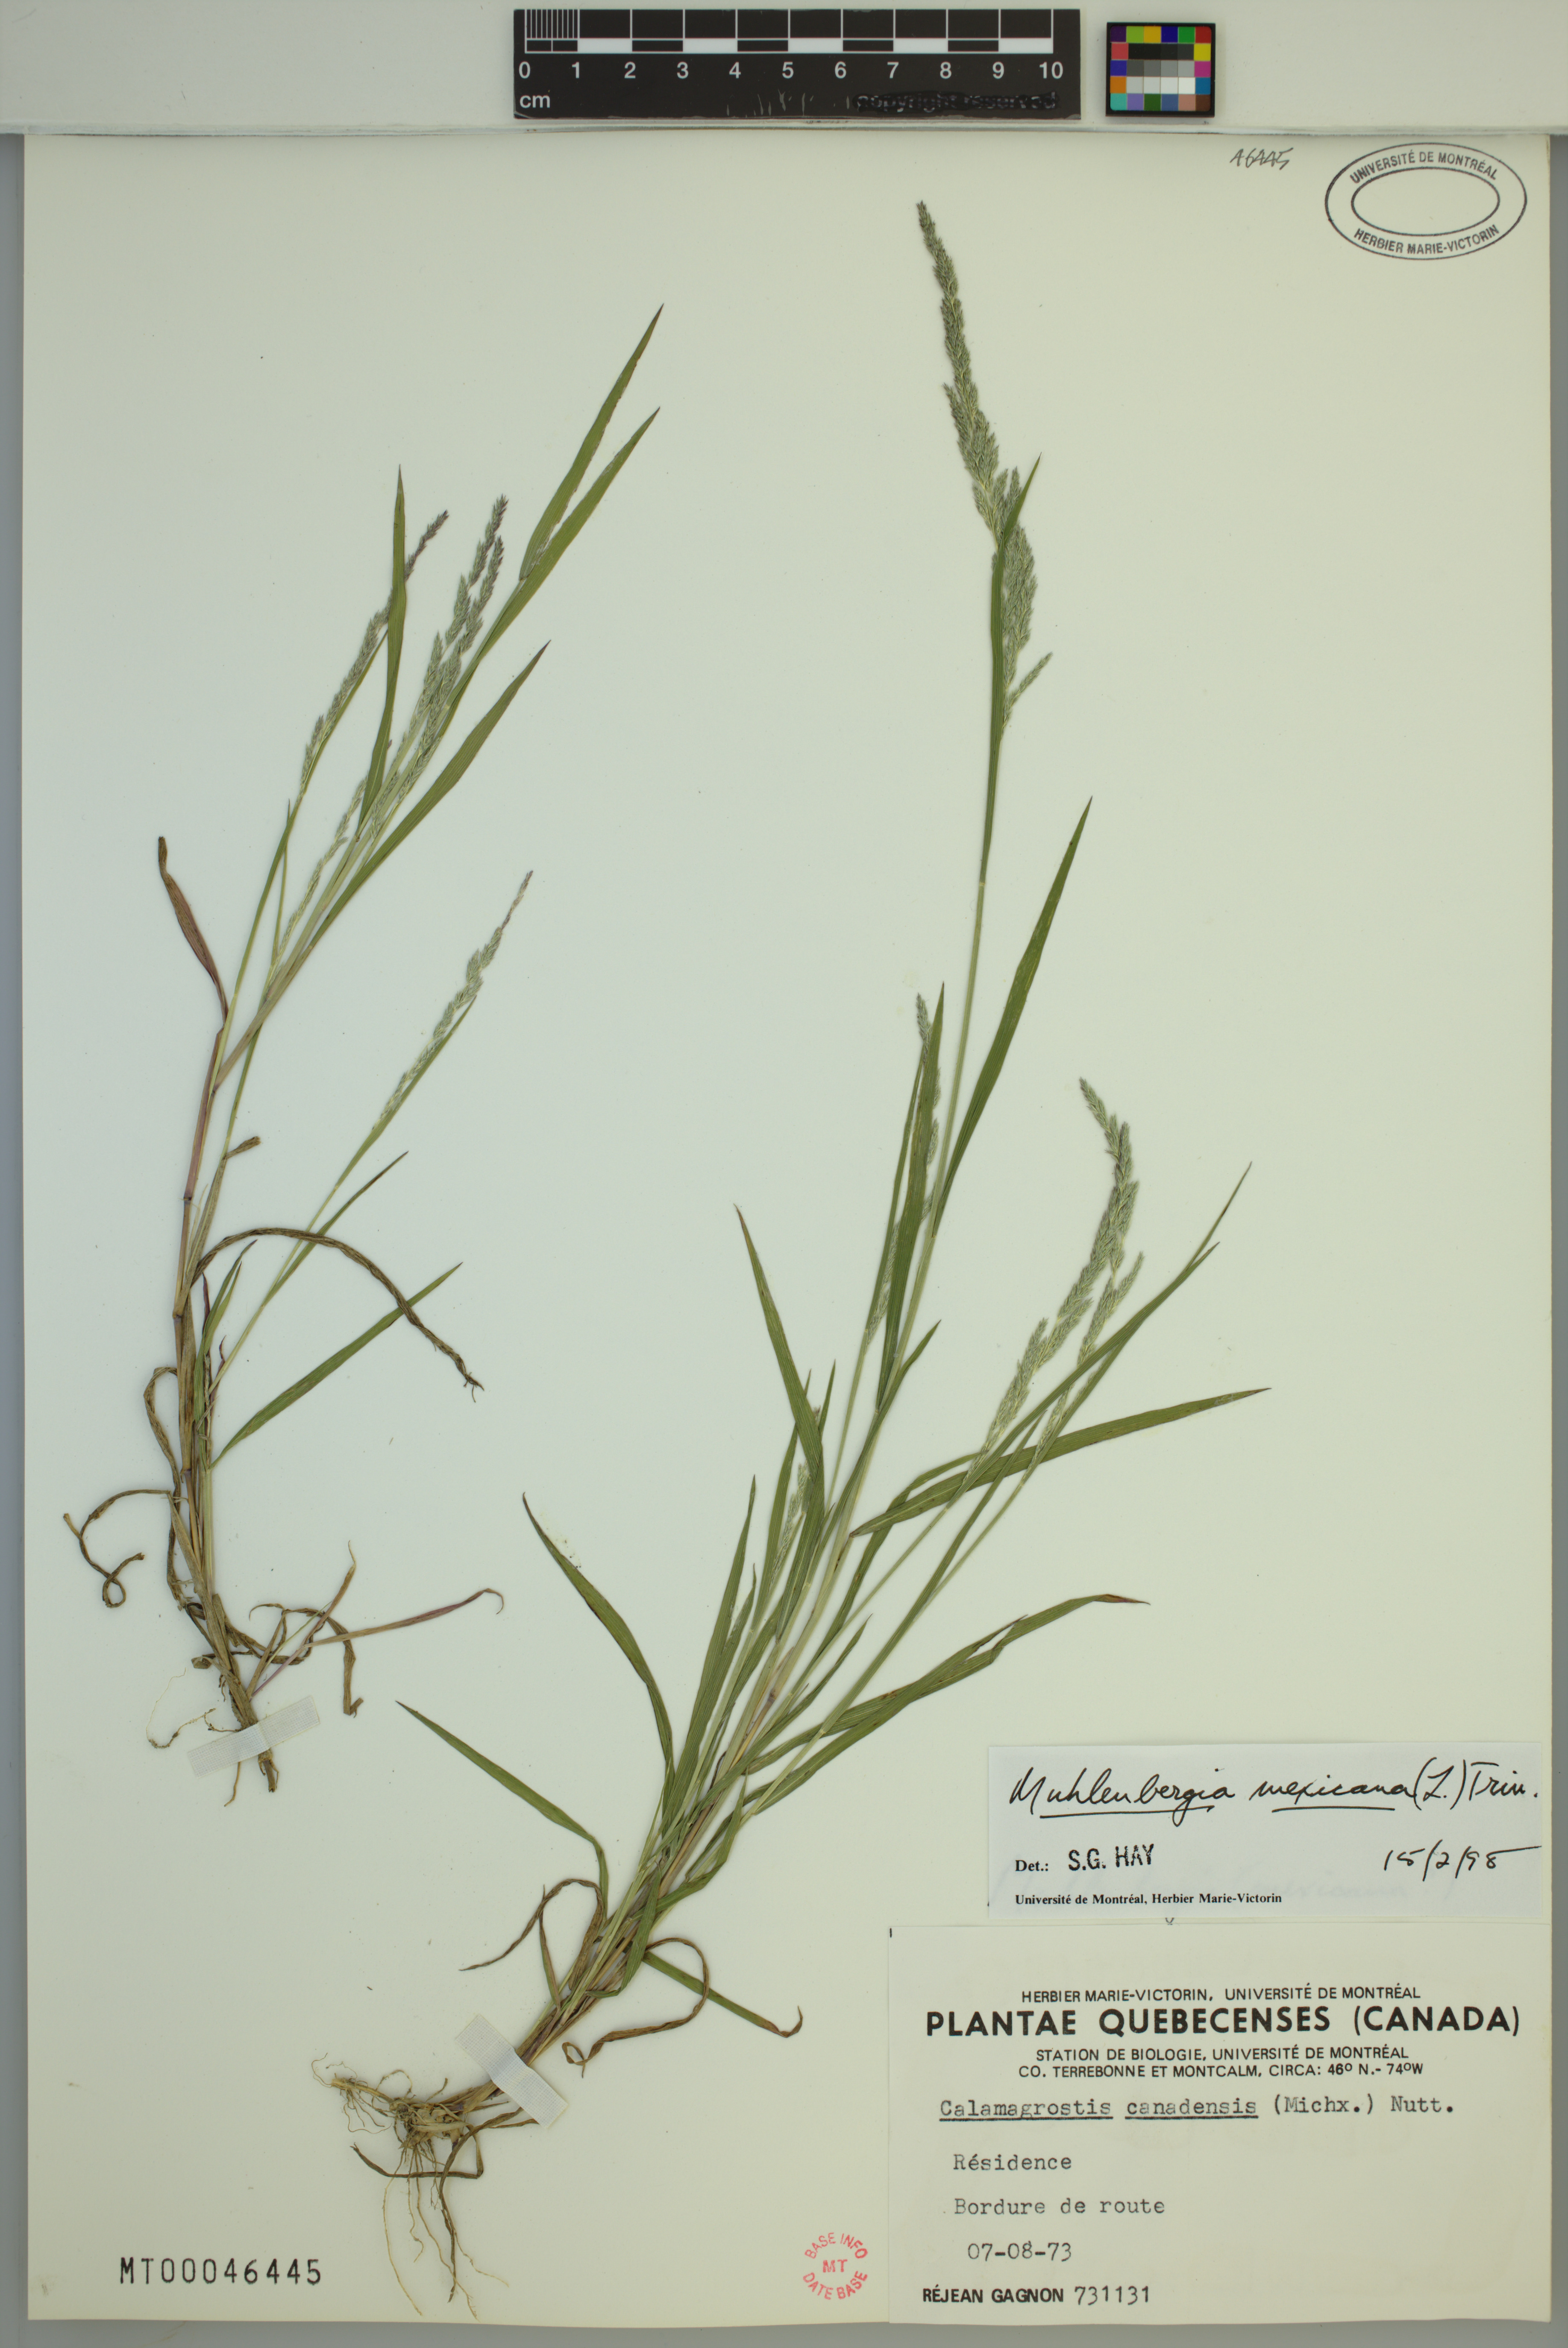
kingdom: Plantae
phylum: Tracheophyta
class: Liliopsida
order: Poales
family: Poaceae
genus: Muhlenbergia
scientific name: Muhlenbergia mexicana
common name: Mexican muhly
